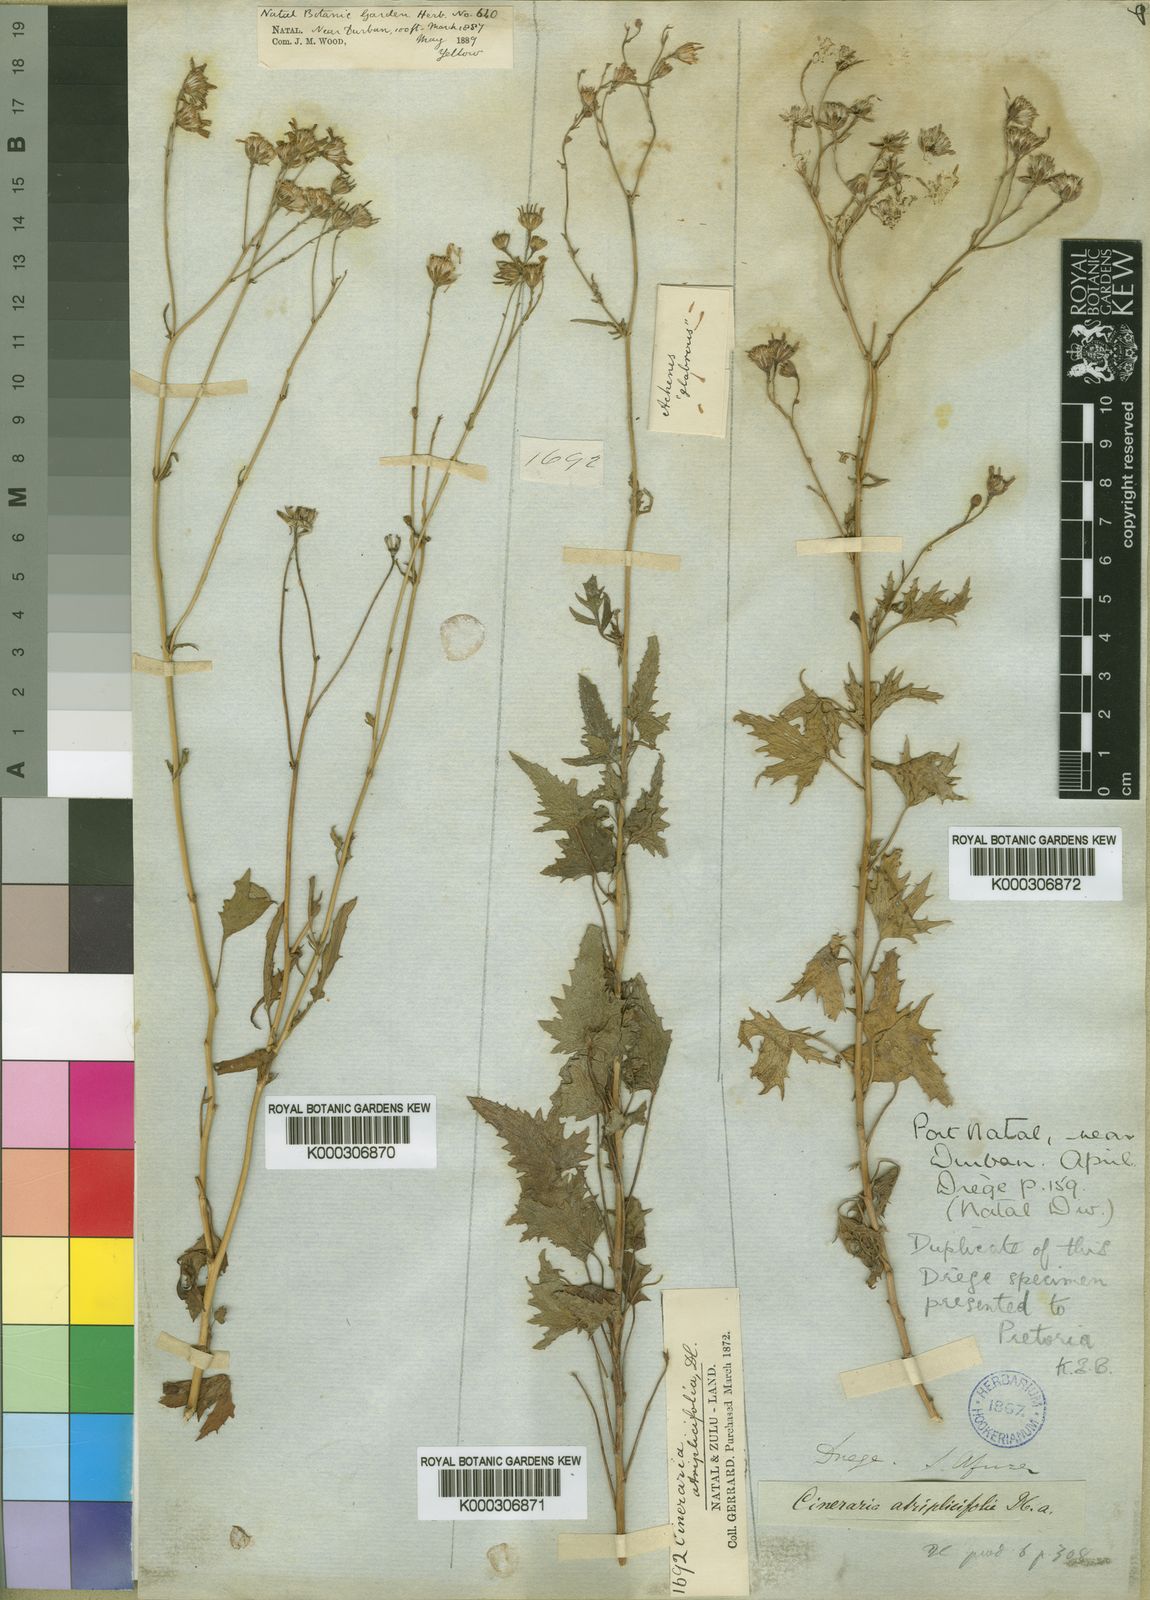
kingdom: Plantae
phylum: Tracheophyta
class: Magnoliopsida
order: Asterales
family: Asteraceae
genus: Cineraria
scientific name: Cineraria atriplicifolia
